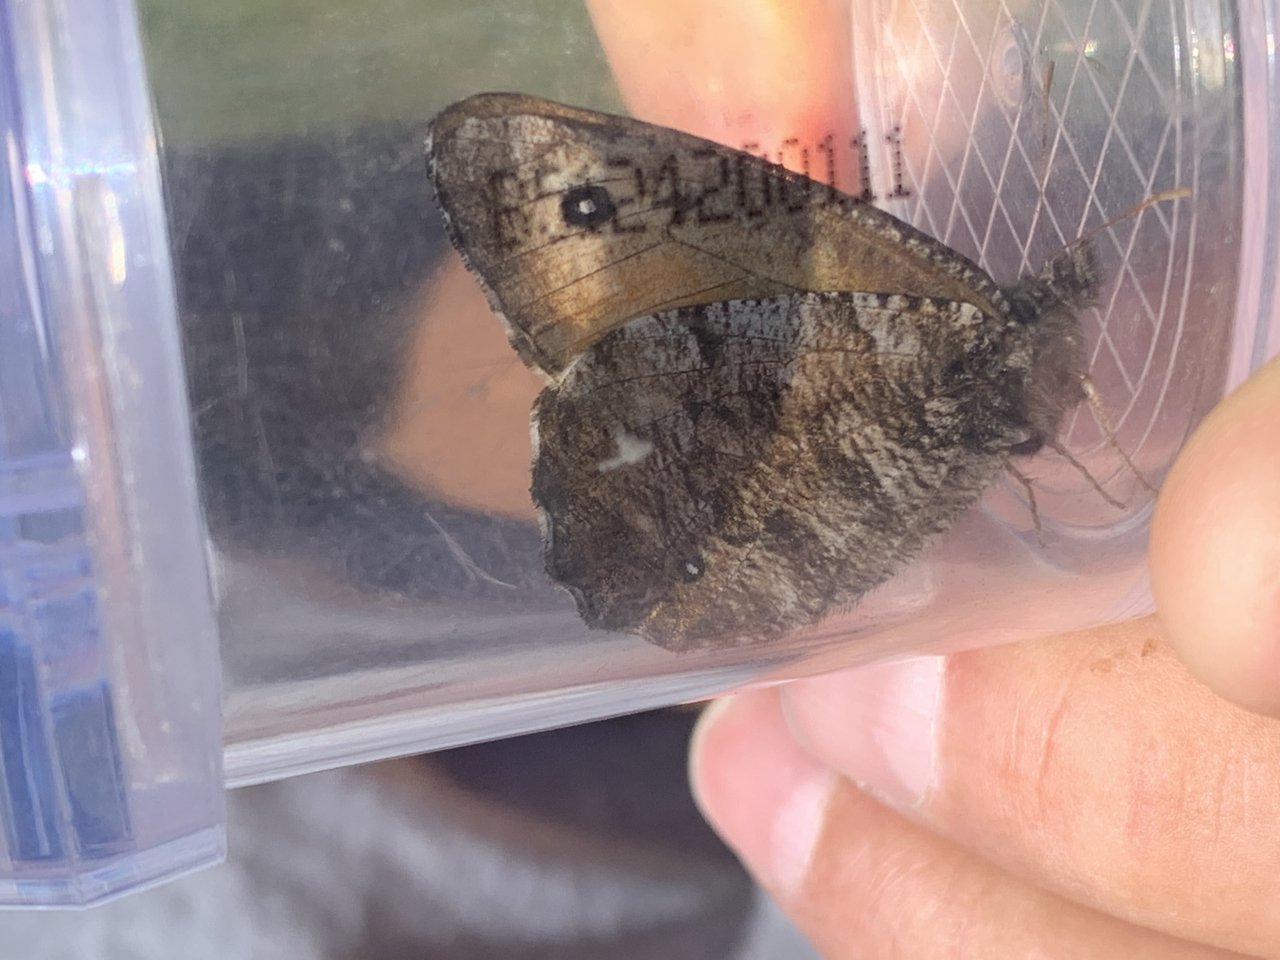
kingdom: Animalia
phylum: Arthropoda
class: Insecta
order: Lepidoptera
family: Nymphalidae
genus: Oeneis
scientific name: Oeneis nevadensis
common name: Great Arctic
